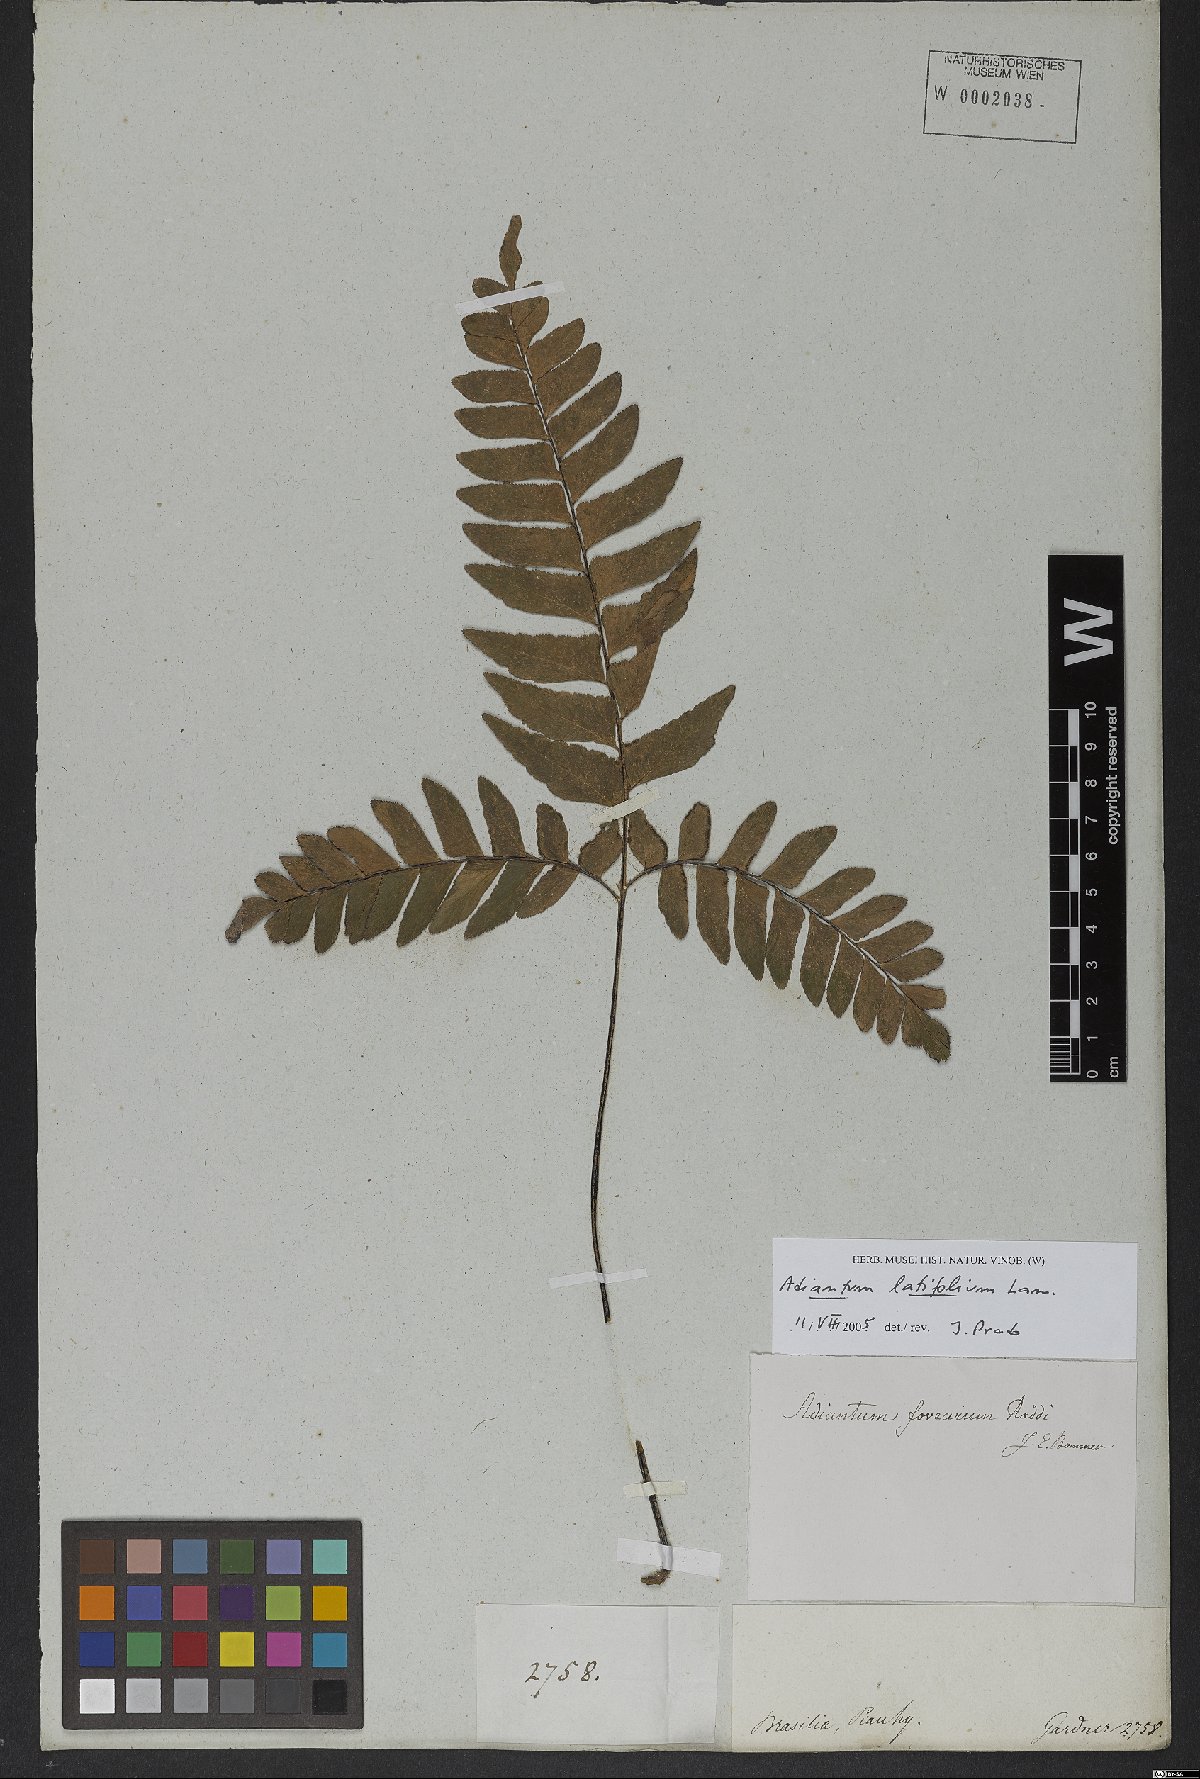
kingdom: Plantae
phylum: Tracheophyta
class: Polypodiopsida
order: Polypodiales
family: Pteridaceae
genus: Adiantum
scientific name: Adiantum latifolium
